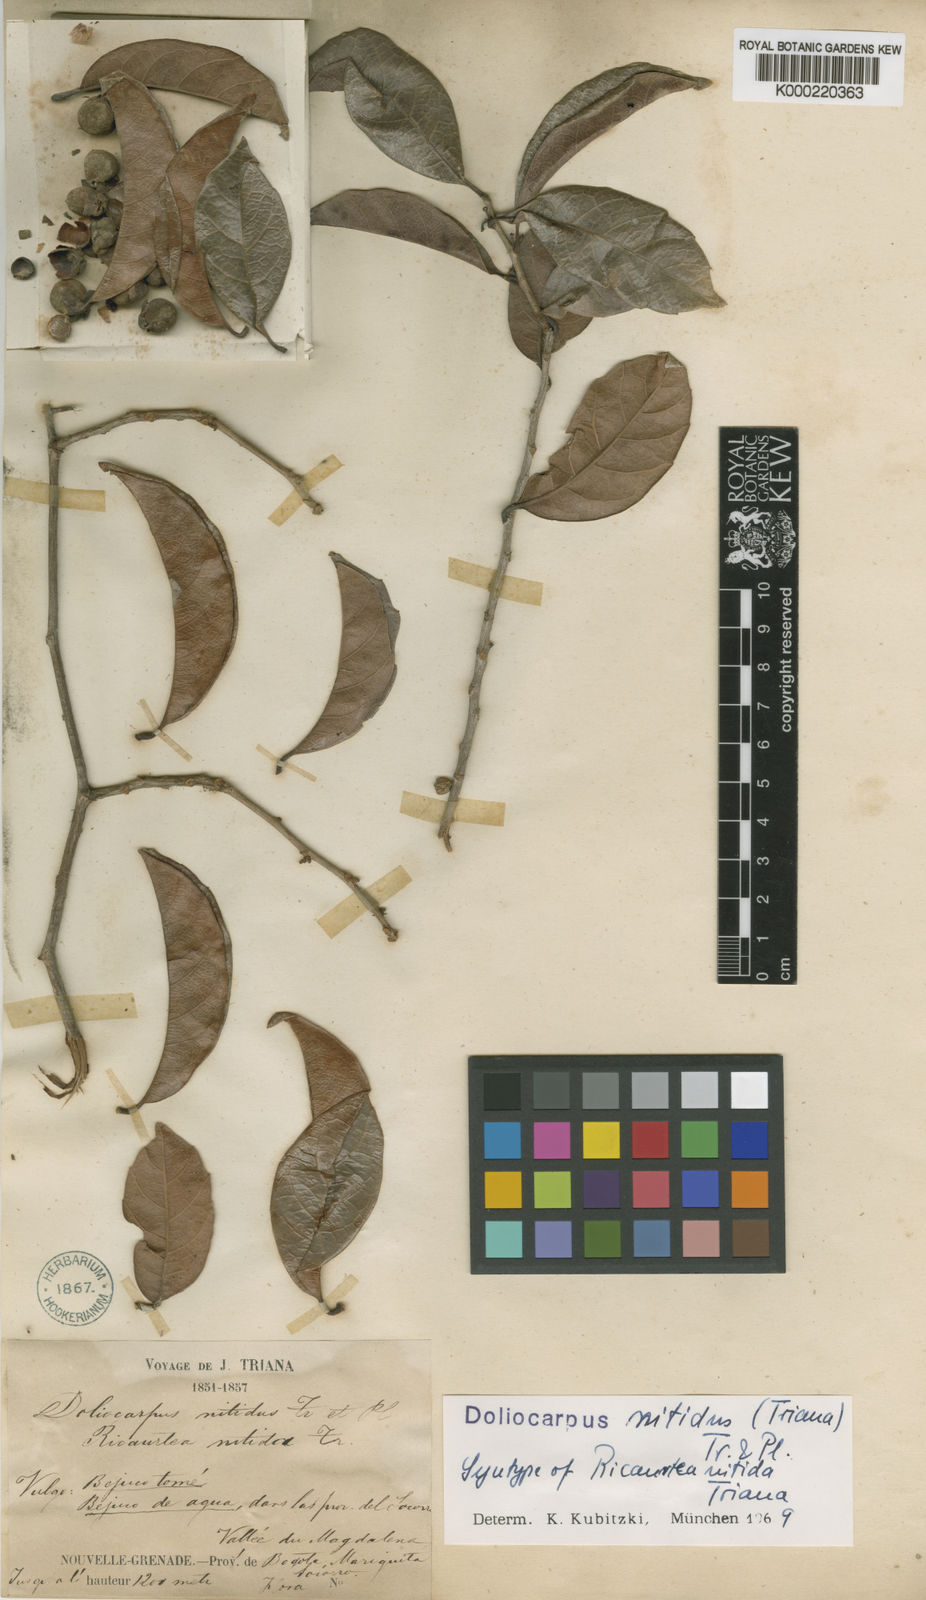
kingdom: Plantae
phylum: Tracheophyta
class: Magnoliopsida
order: Dilleniales
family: Dilleniaceae
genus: Doliocarpus
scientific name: Doliocarpus nitidus
